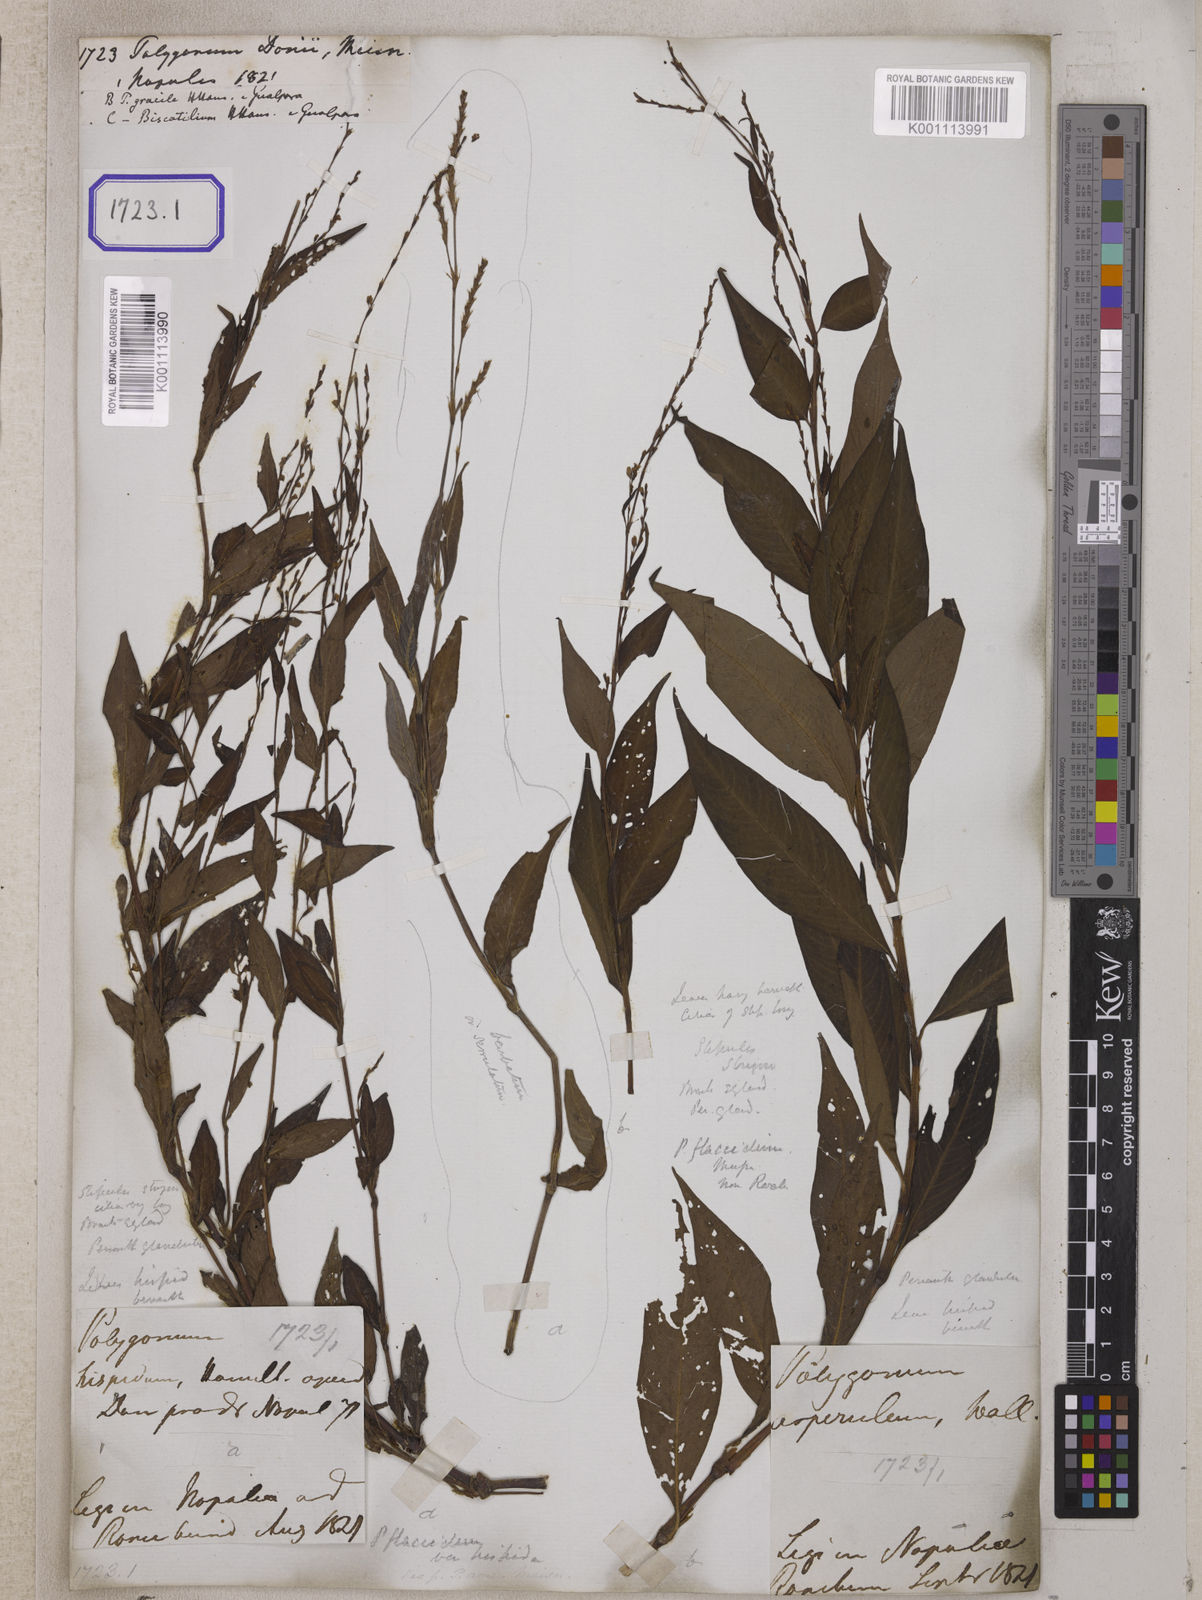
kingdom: Plantae
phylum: Tracheophyta
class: Magnoliopsida
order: Caryophyllales
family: Polygonaceae
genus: Persicaria
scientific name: Persicaria pubescens
